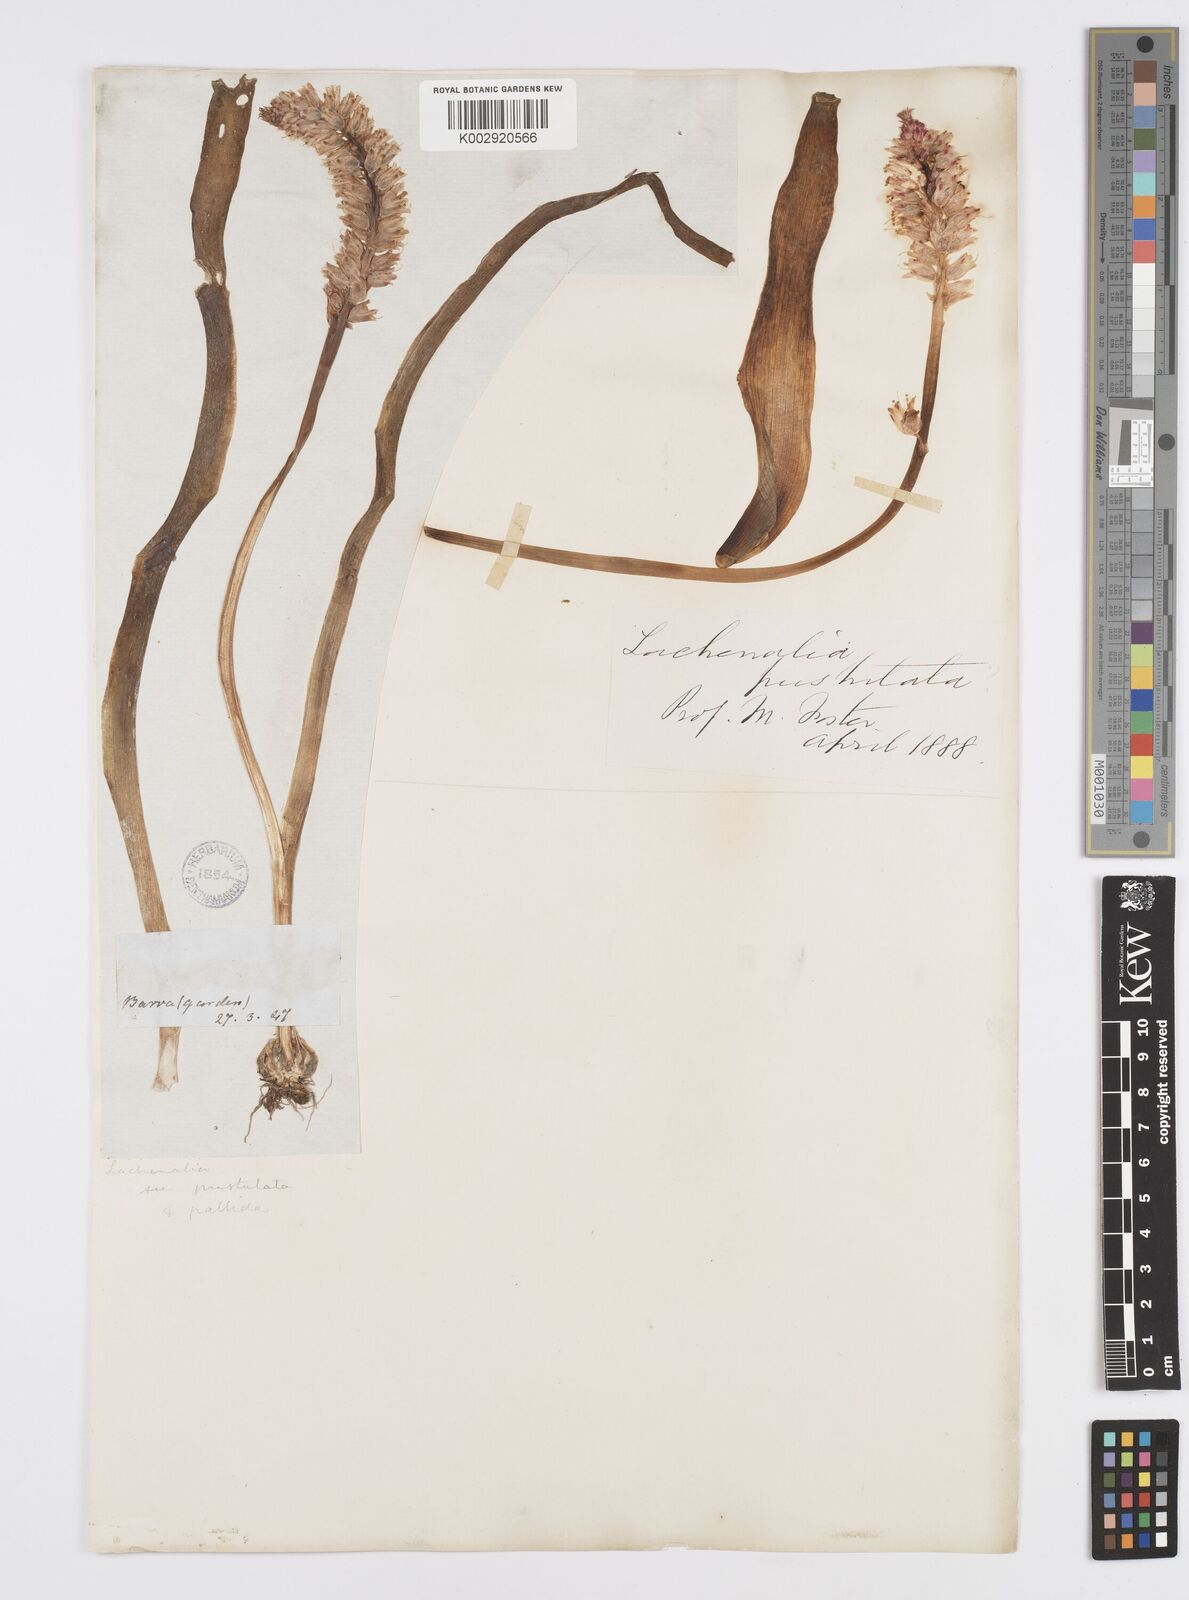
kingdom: Plantae
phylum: Tracheophyta
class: Liliopsida
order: Asparagales
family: Asparagaceae
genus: Lachenalia
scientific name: Lachenalia pallida
